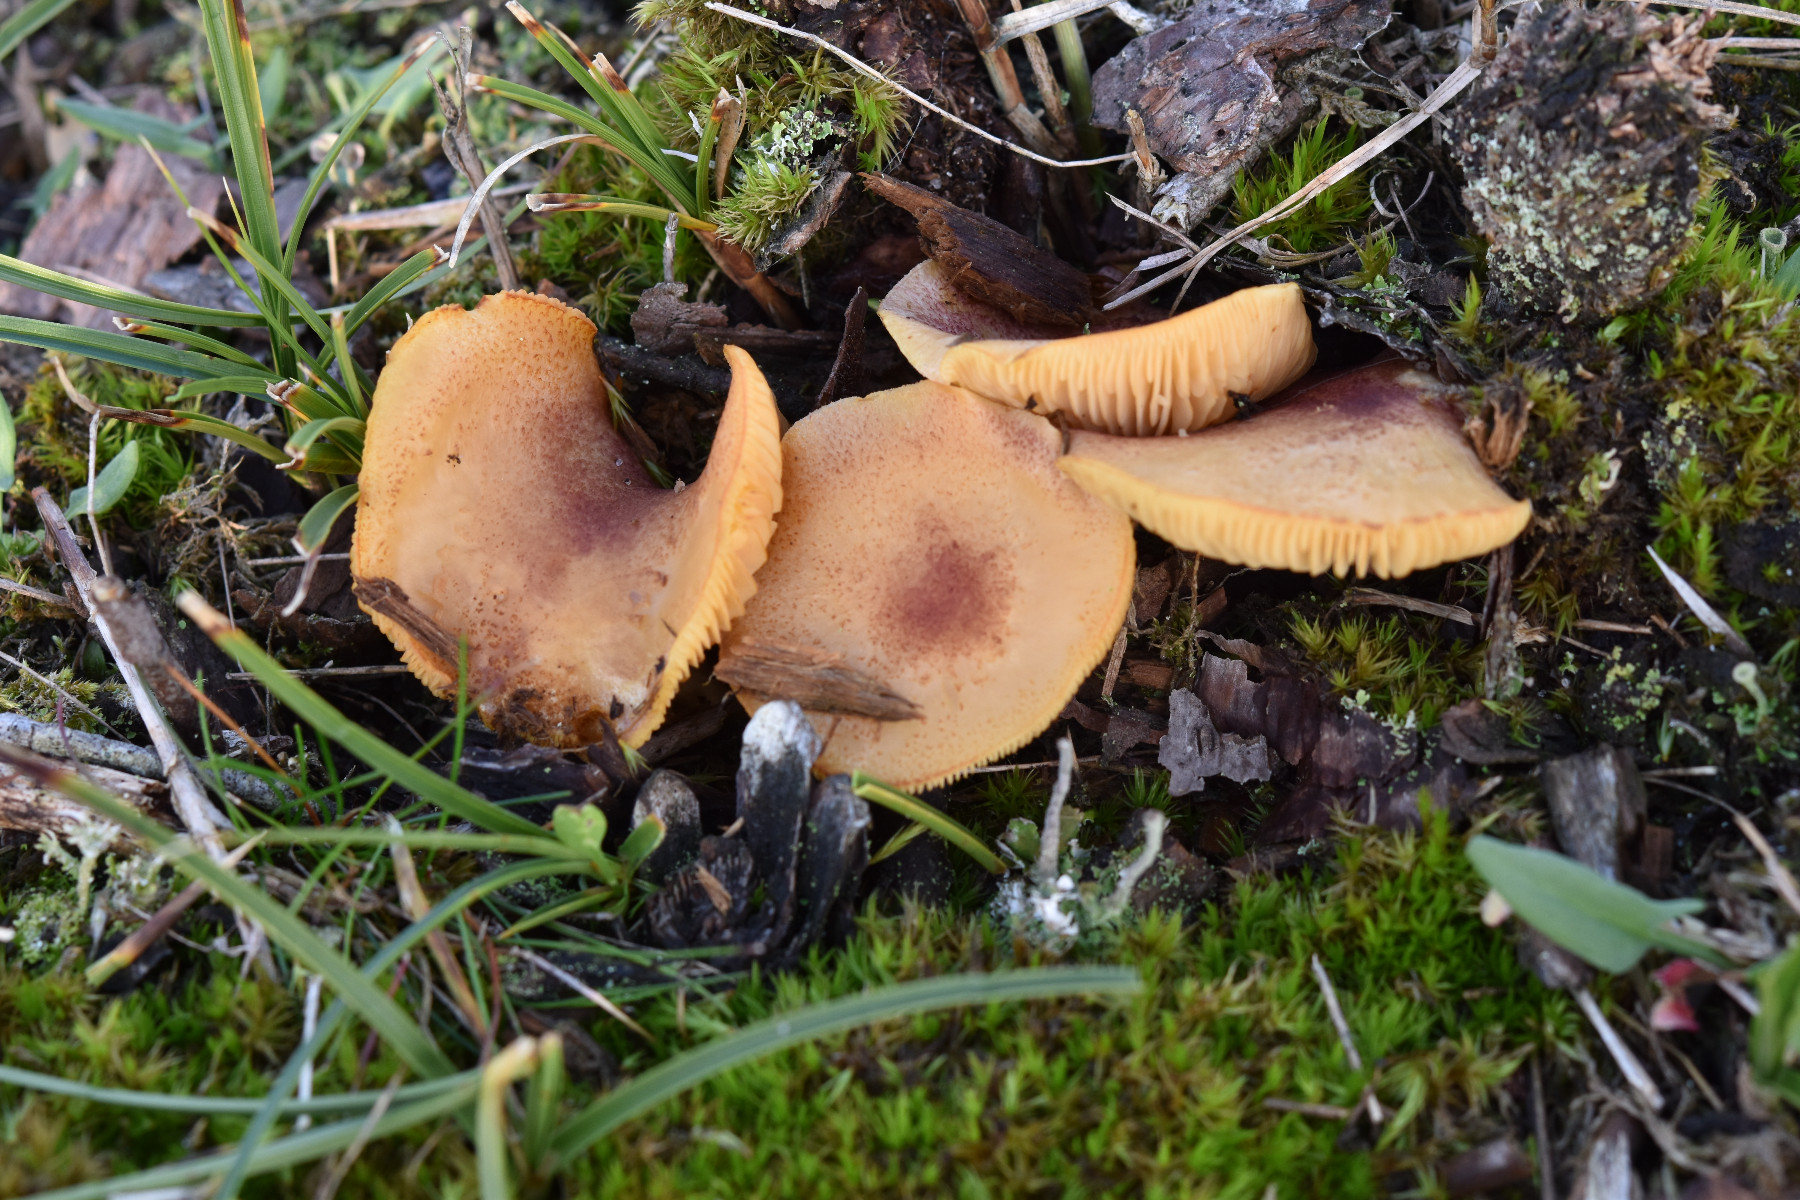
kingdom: Fungi
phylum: Basidiomycota
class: Agaricomycetes
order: Agaricales
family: Tricholomataceae
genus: Tricholomopsis
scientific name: Tricholomopsis rutilans
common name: purpur-væbnerhat
